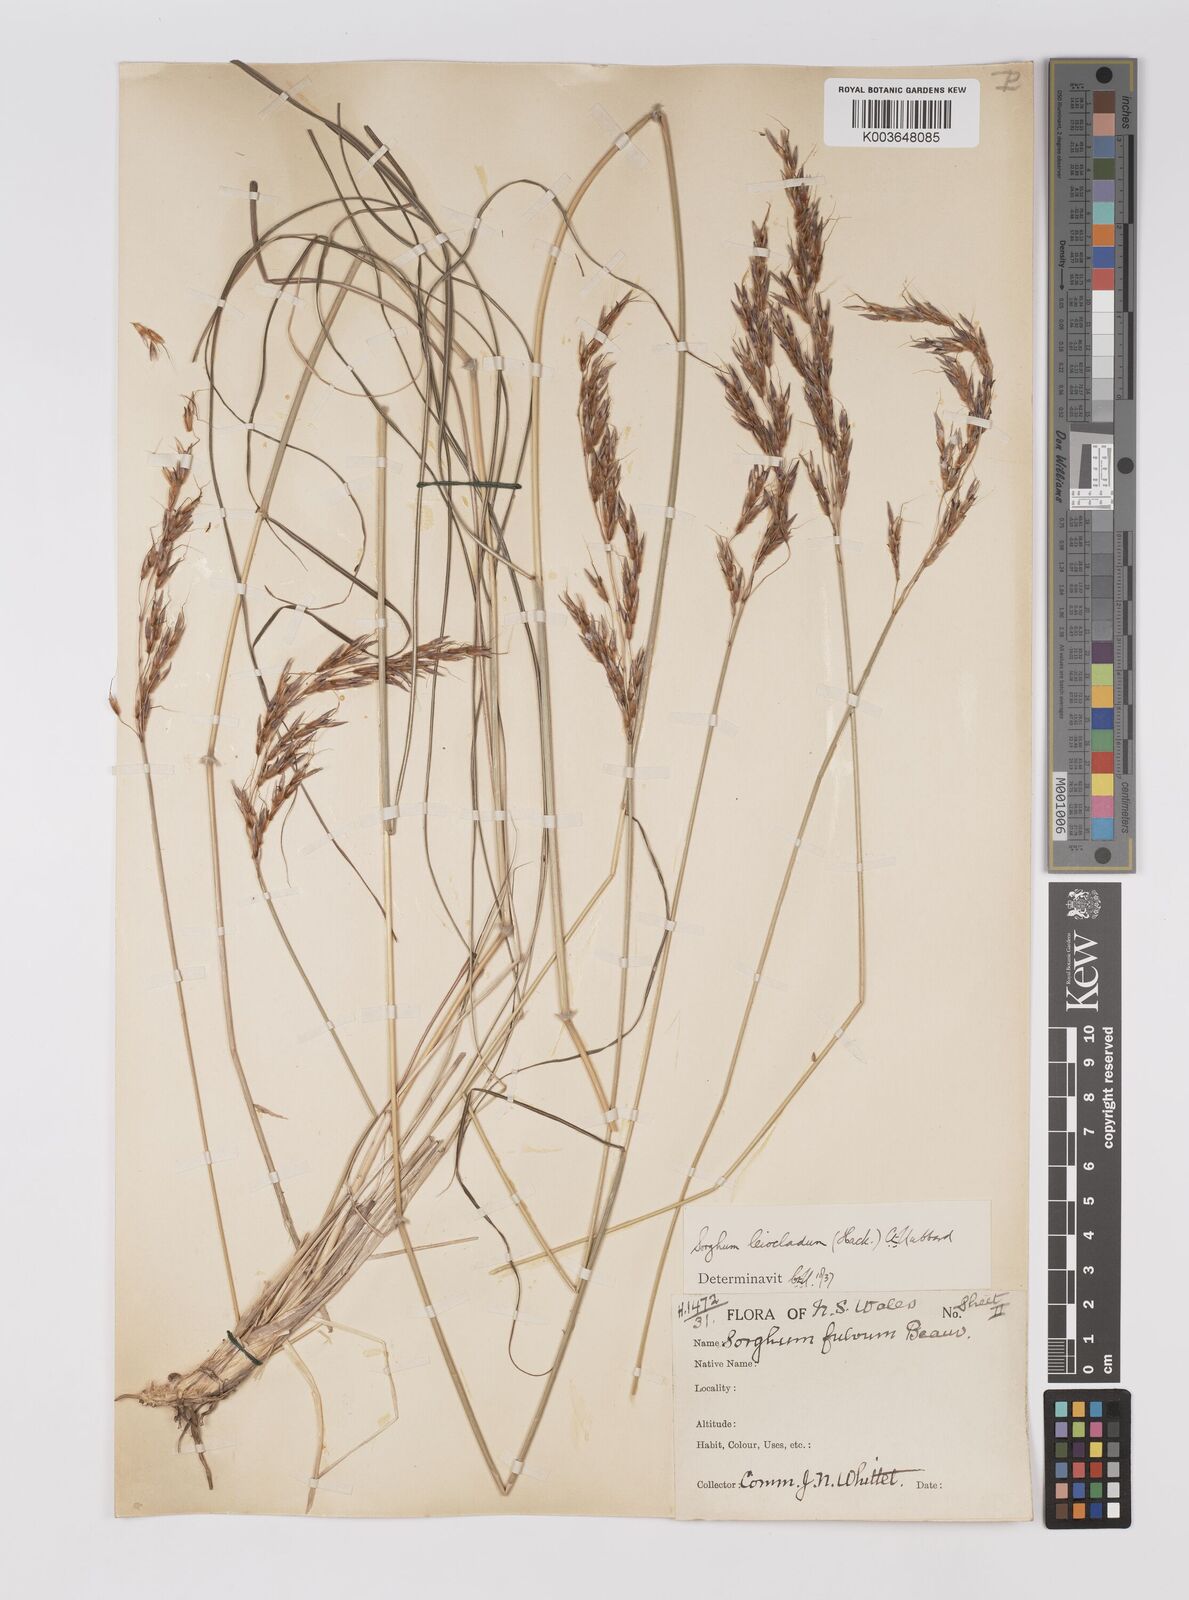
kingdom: Plantae
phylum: Tracheophyta
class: Liliopsida
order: Poales
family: Poaceae
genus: Sarga
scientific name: Sarga leioclada
